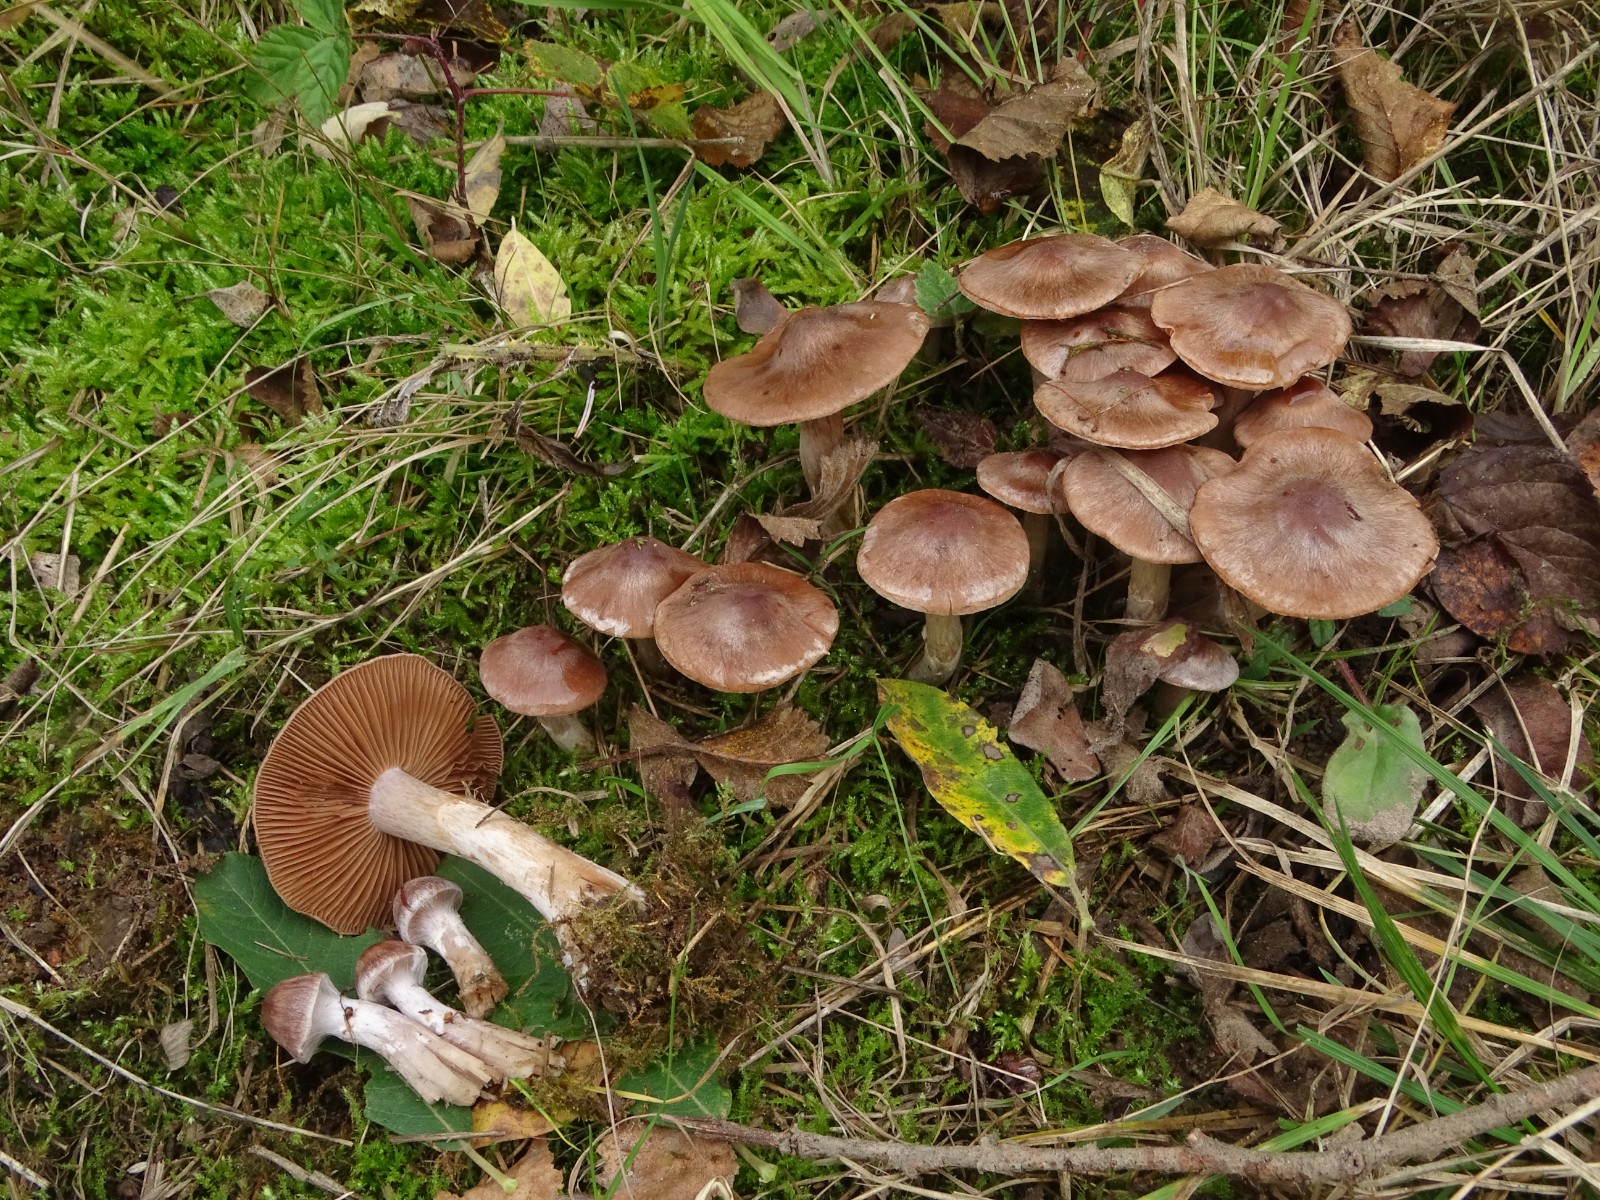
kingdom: Fungi
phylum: Basidiomycota
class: Agaricomycetes
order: Agaricales
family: Cortinariaceae
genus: Cortinarius
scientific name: Cortinarius saturninus
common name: brunviolet slørhat
